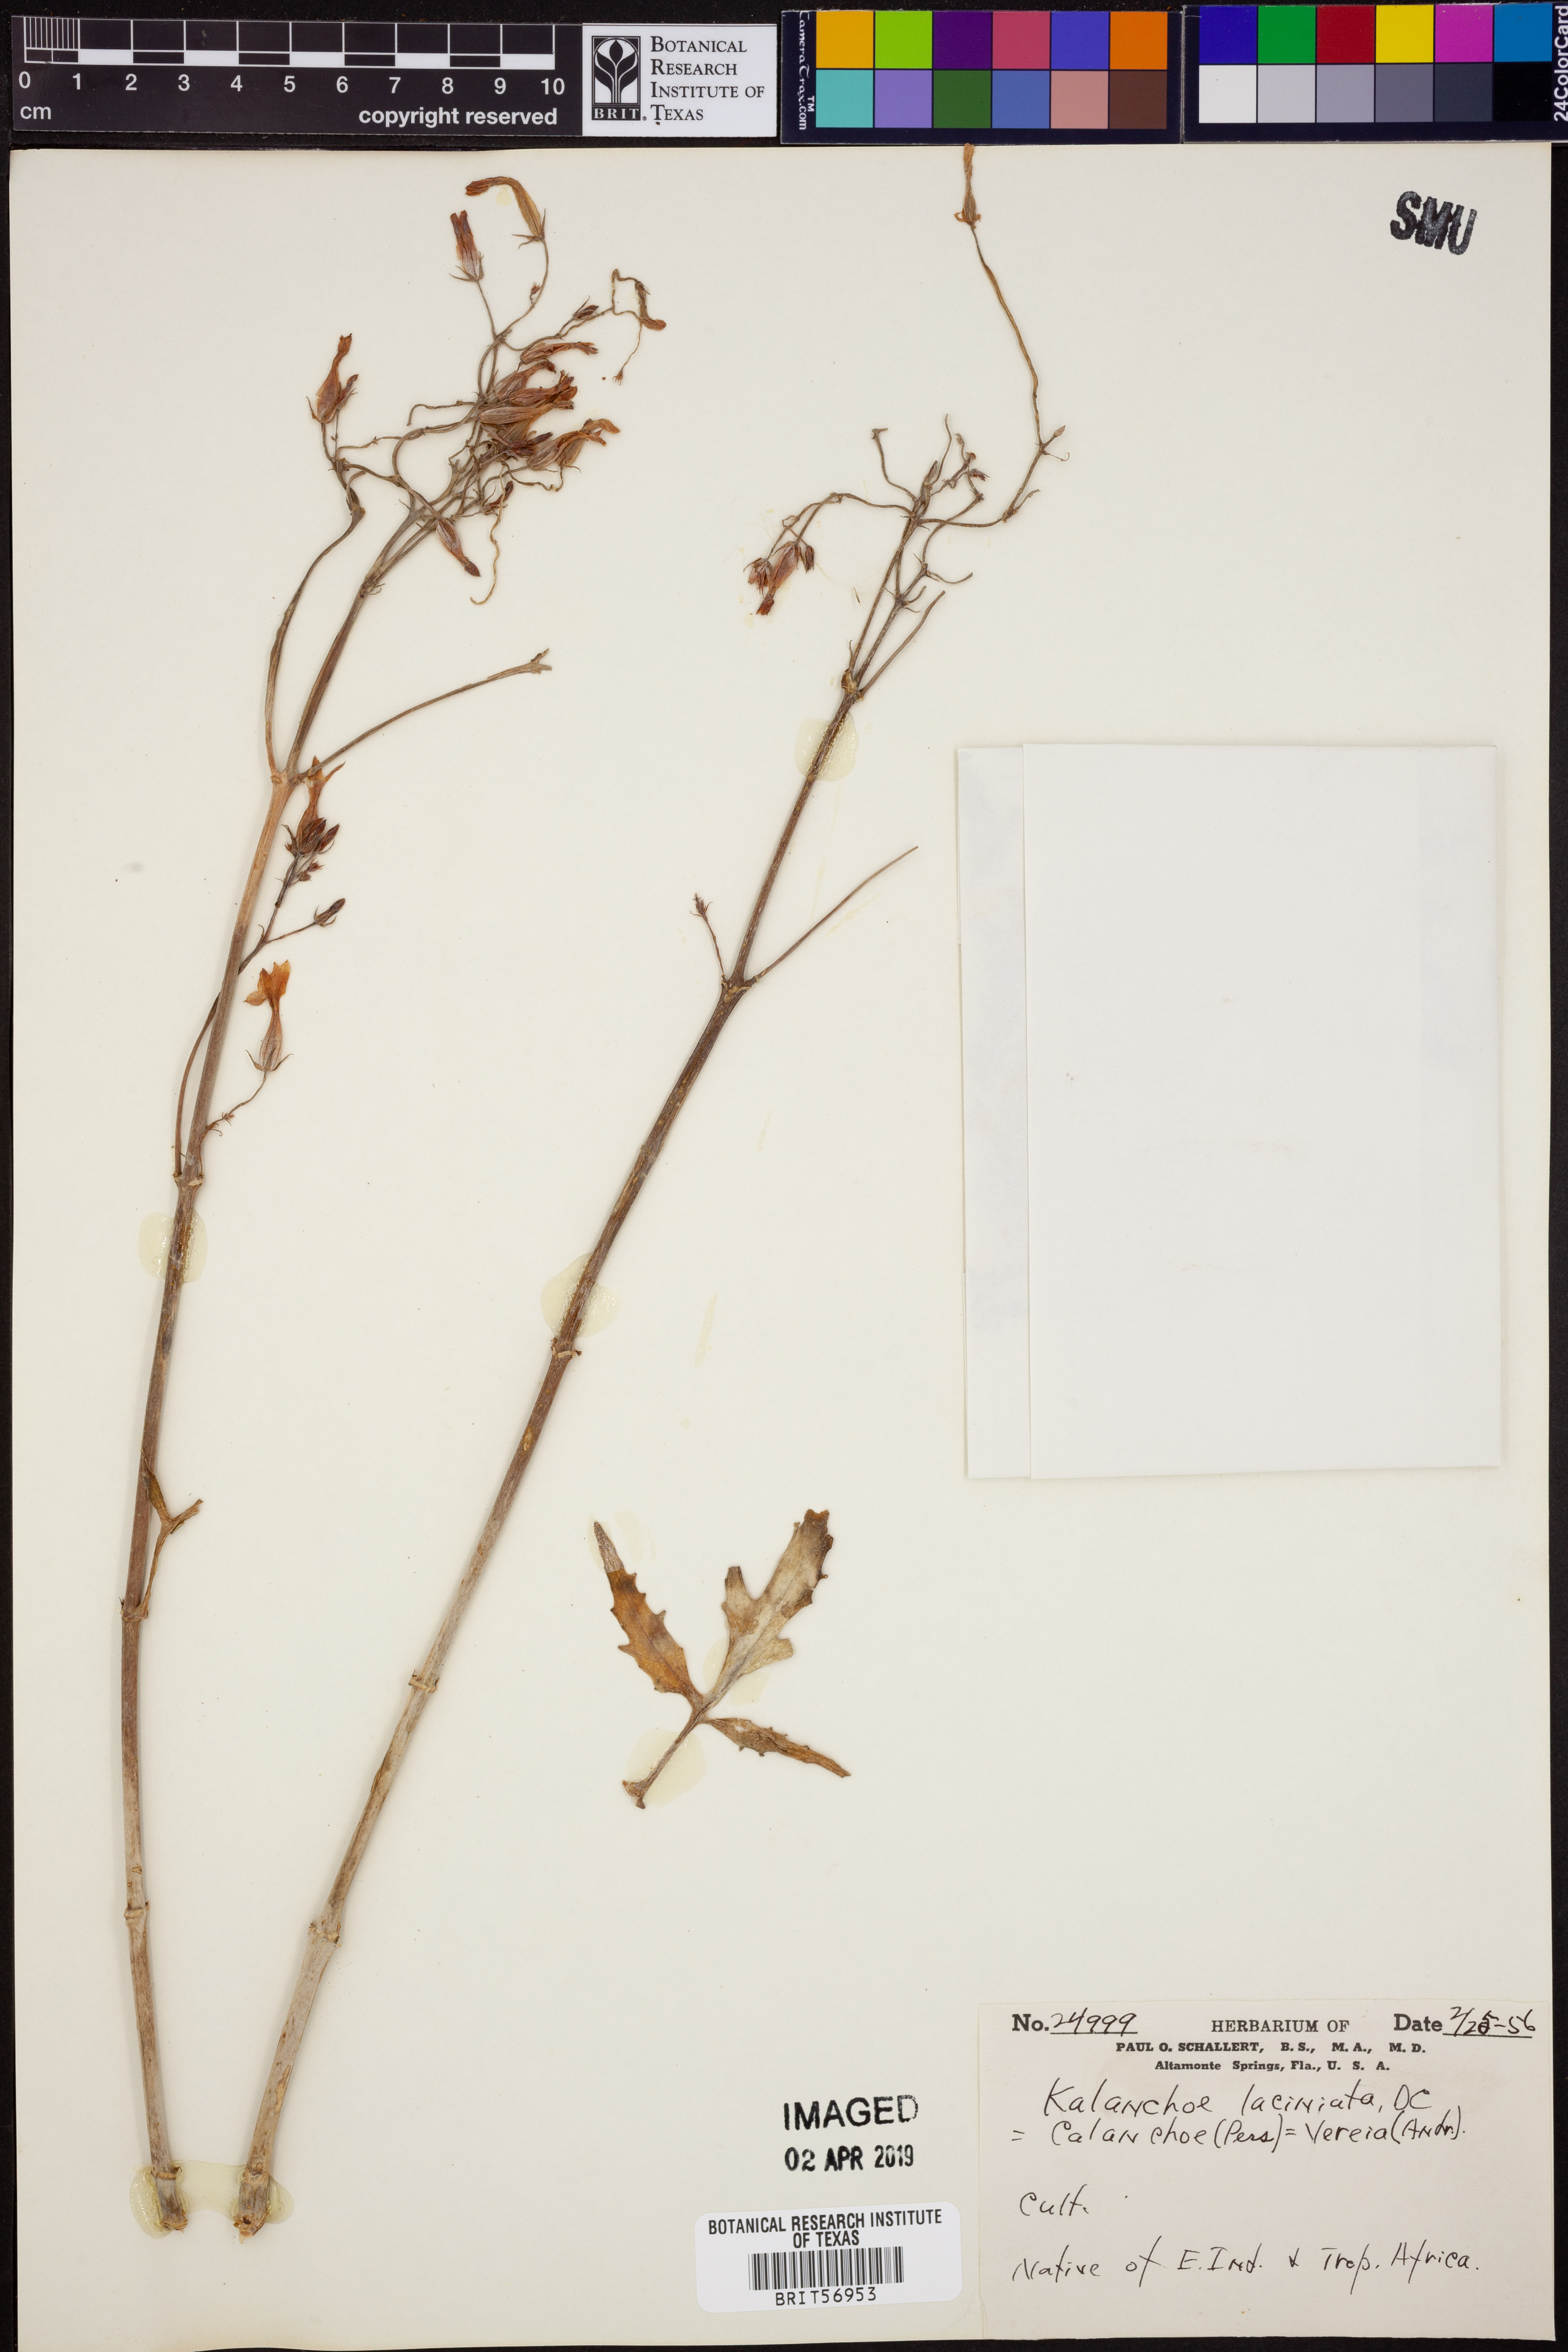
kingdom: Plantae
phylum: Tracheophyta
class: Magnoliopsida
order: Saxifragales
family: Crassulaceae
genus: Kalanchoe
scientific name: Kalanchoe laciniata
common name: Christmastree plant
